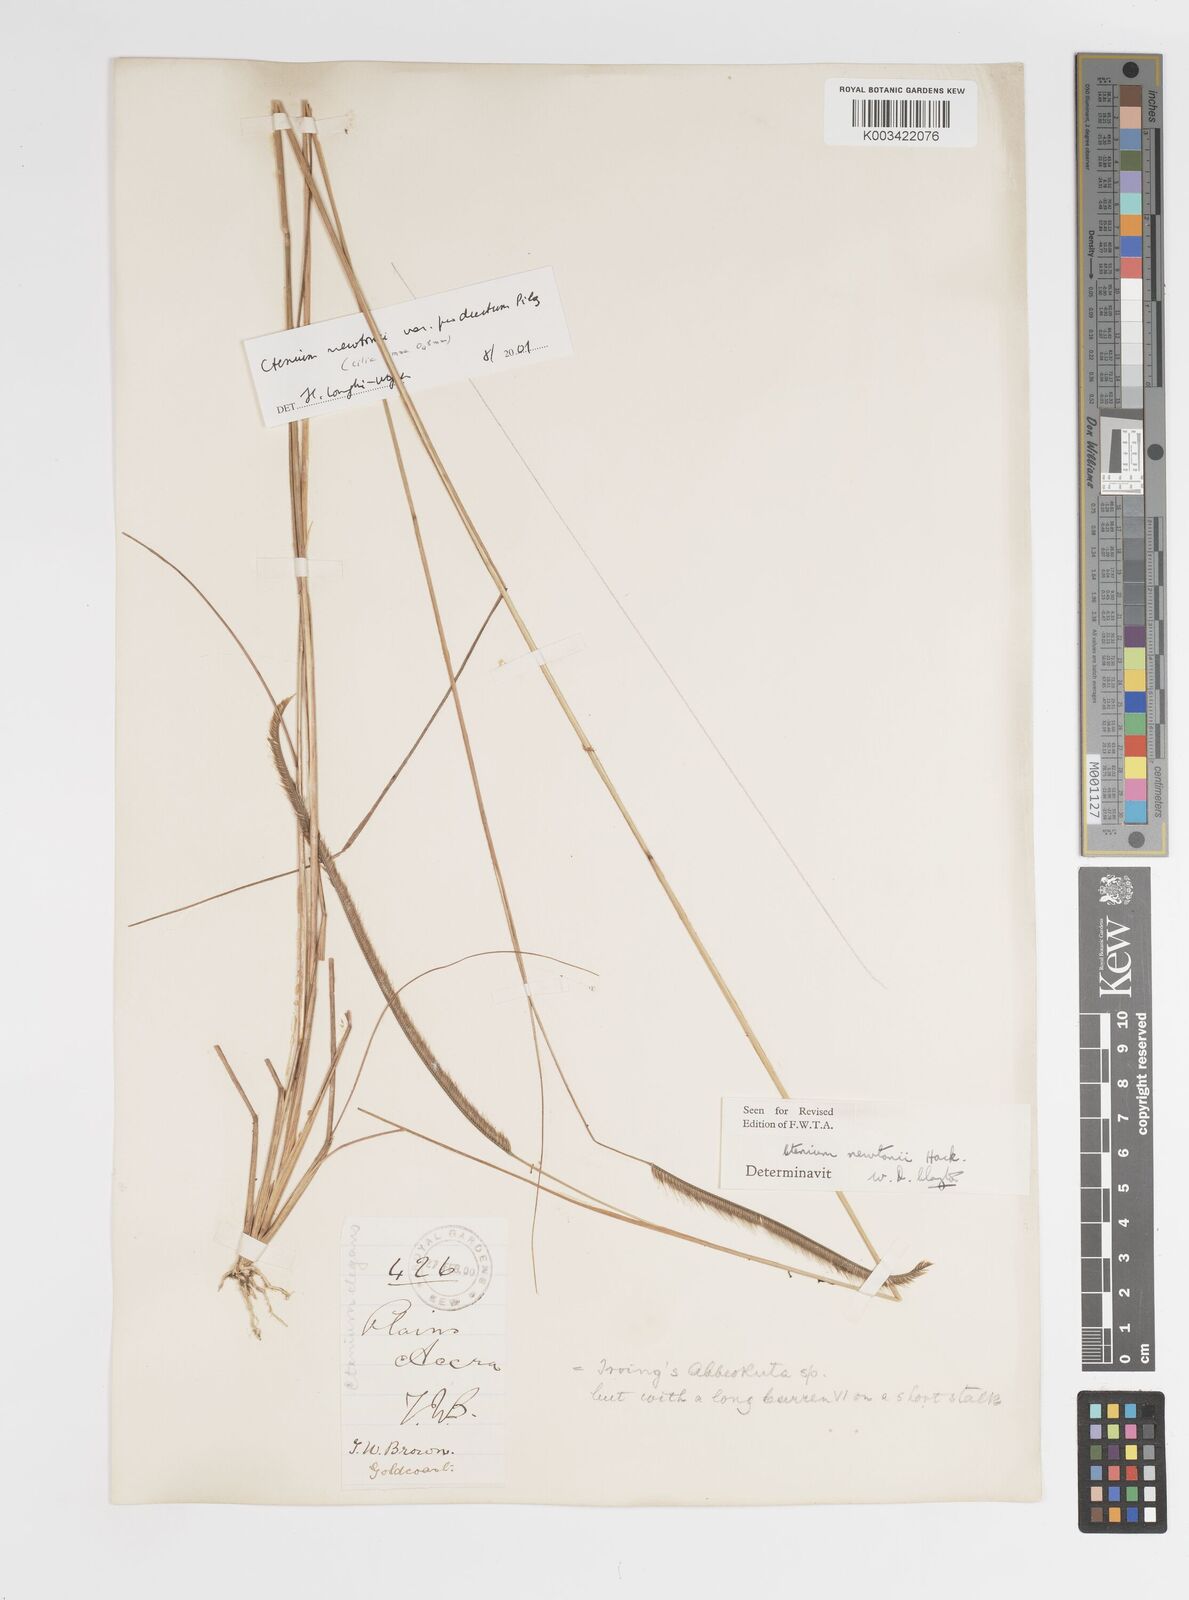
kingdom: Plantae
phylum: Tracheophyta
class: Liliopsida
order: Poales
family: Poaceae
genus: Ctenium
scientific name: Ctenium newtonii
